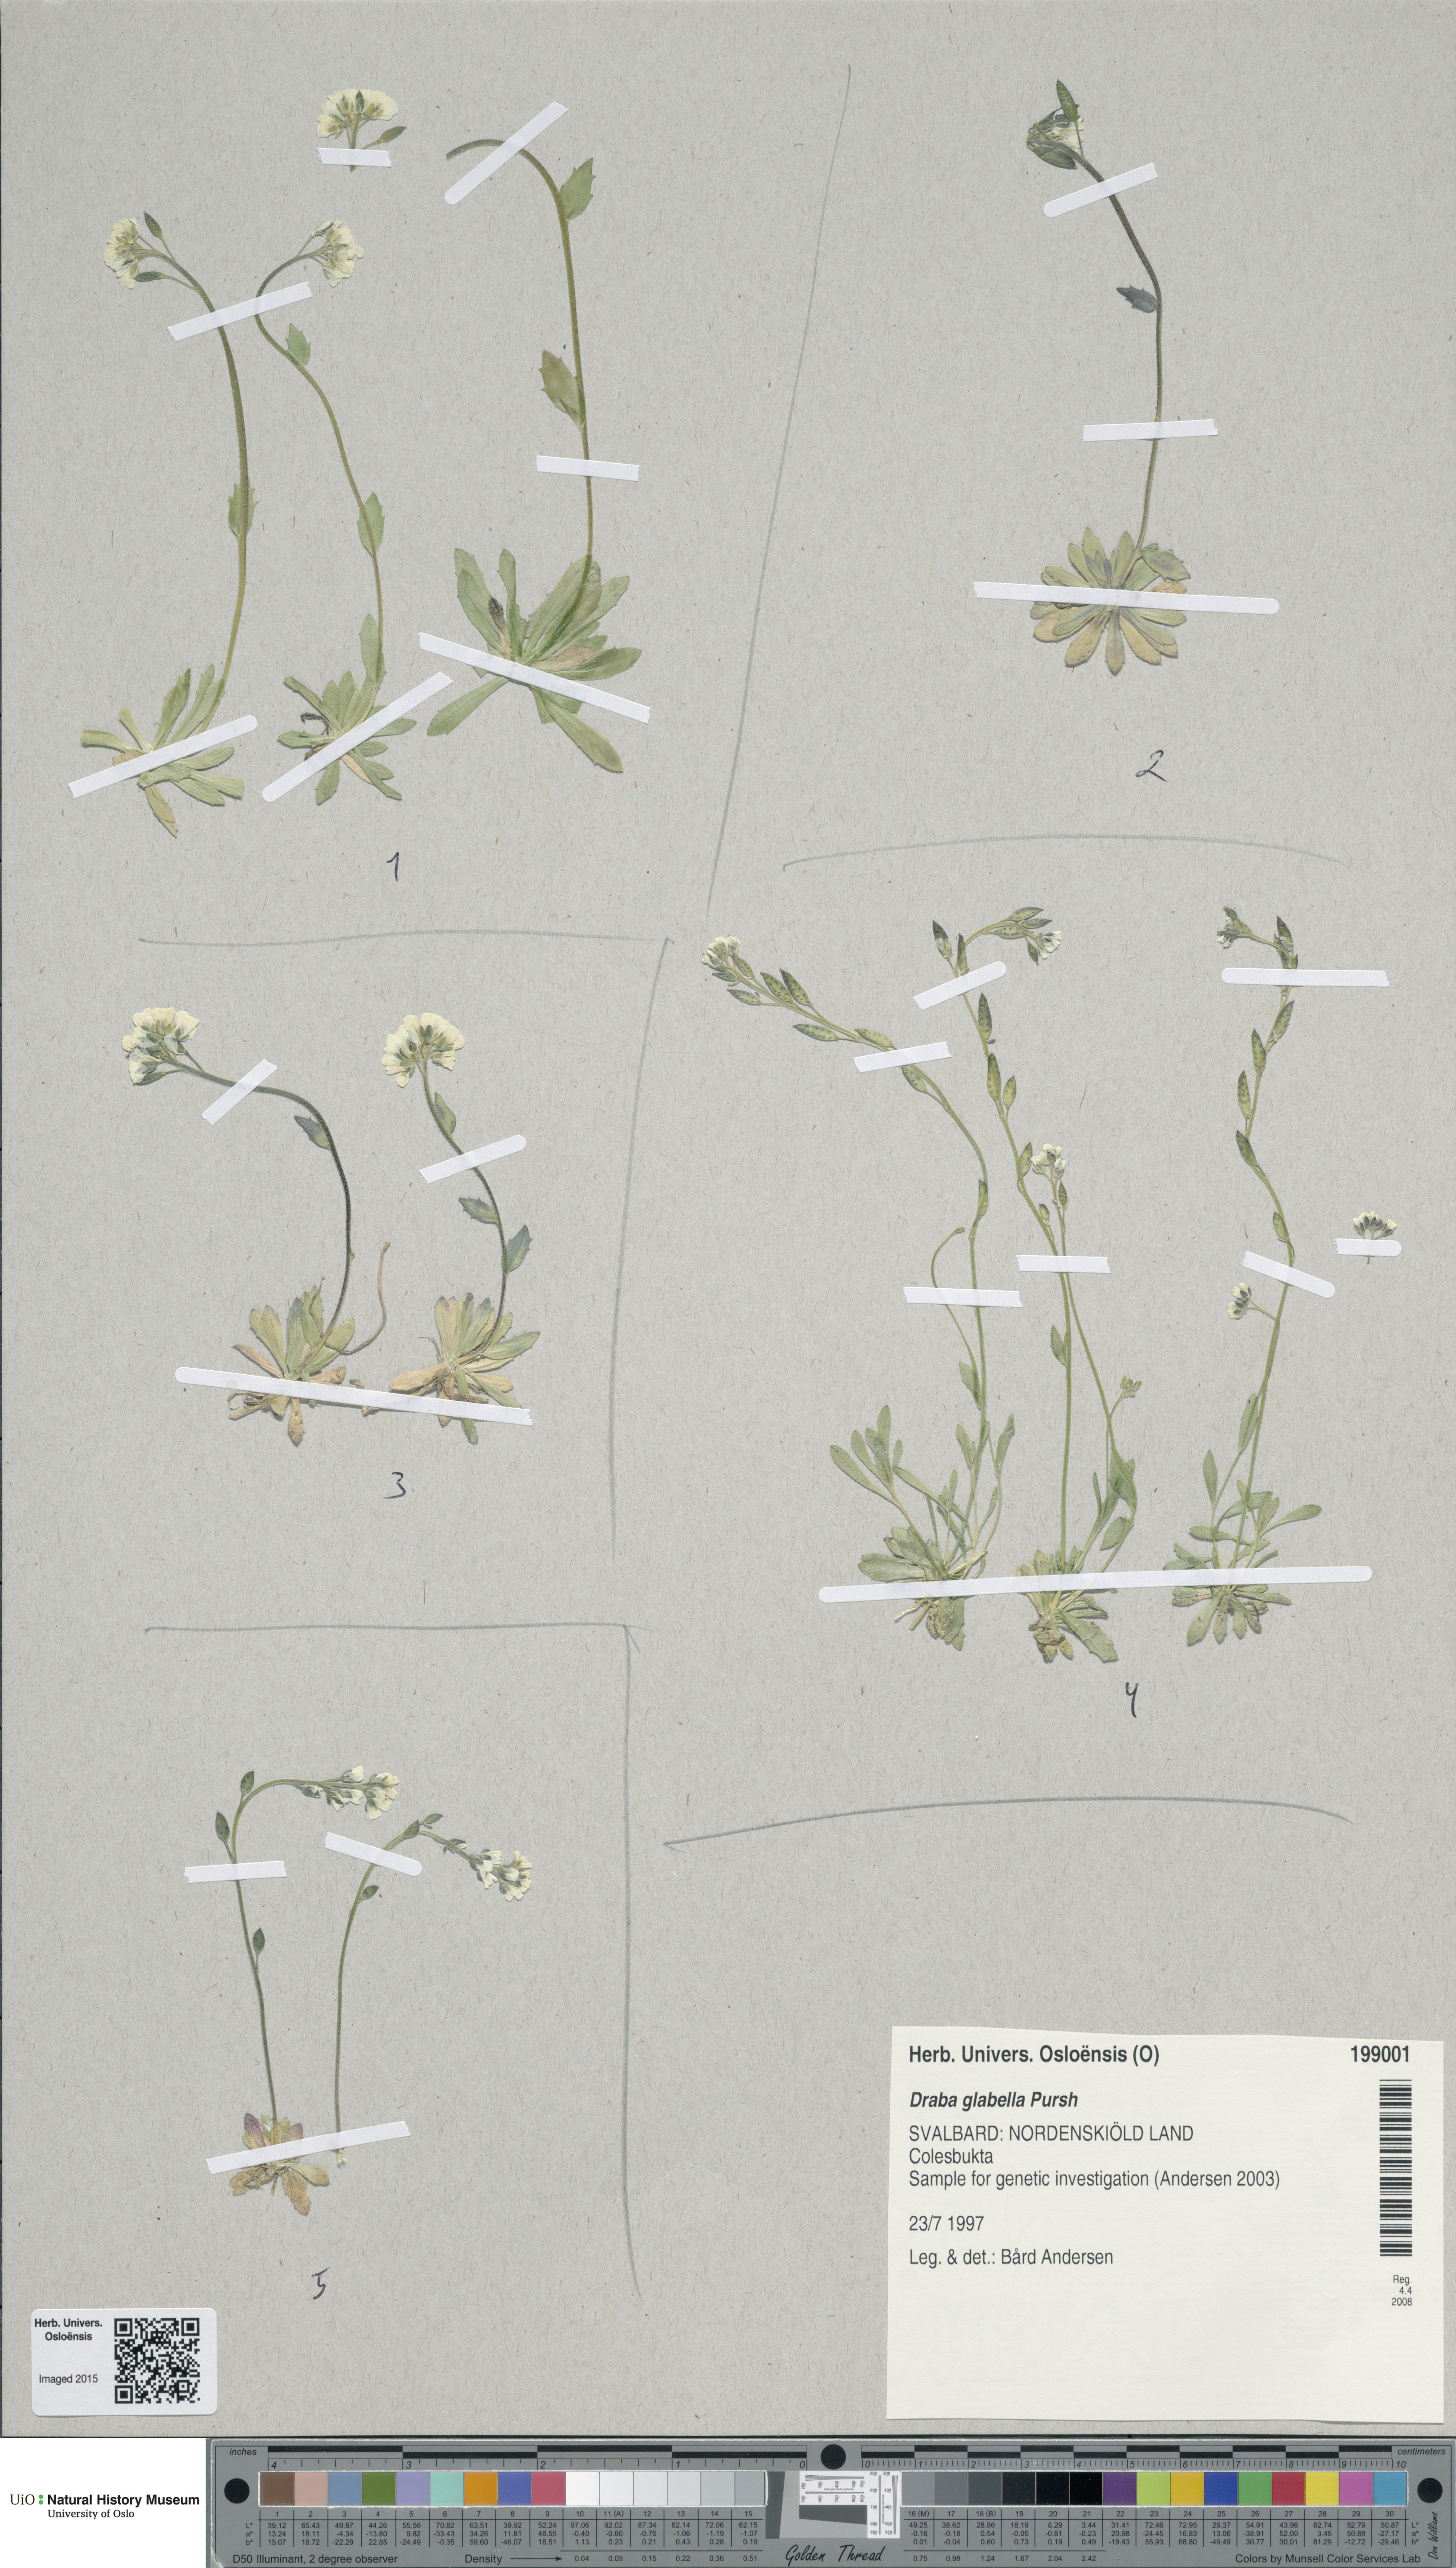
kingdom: Plantae
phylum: Tracheophyta
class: Magnoliopsida
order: Brassicales
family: Brassicaceae
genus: Draba
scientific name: Draba glabella
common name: Glaucous draba
